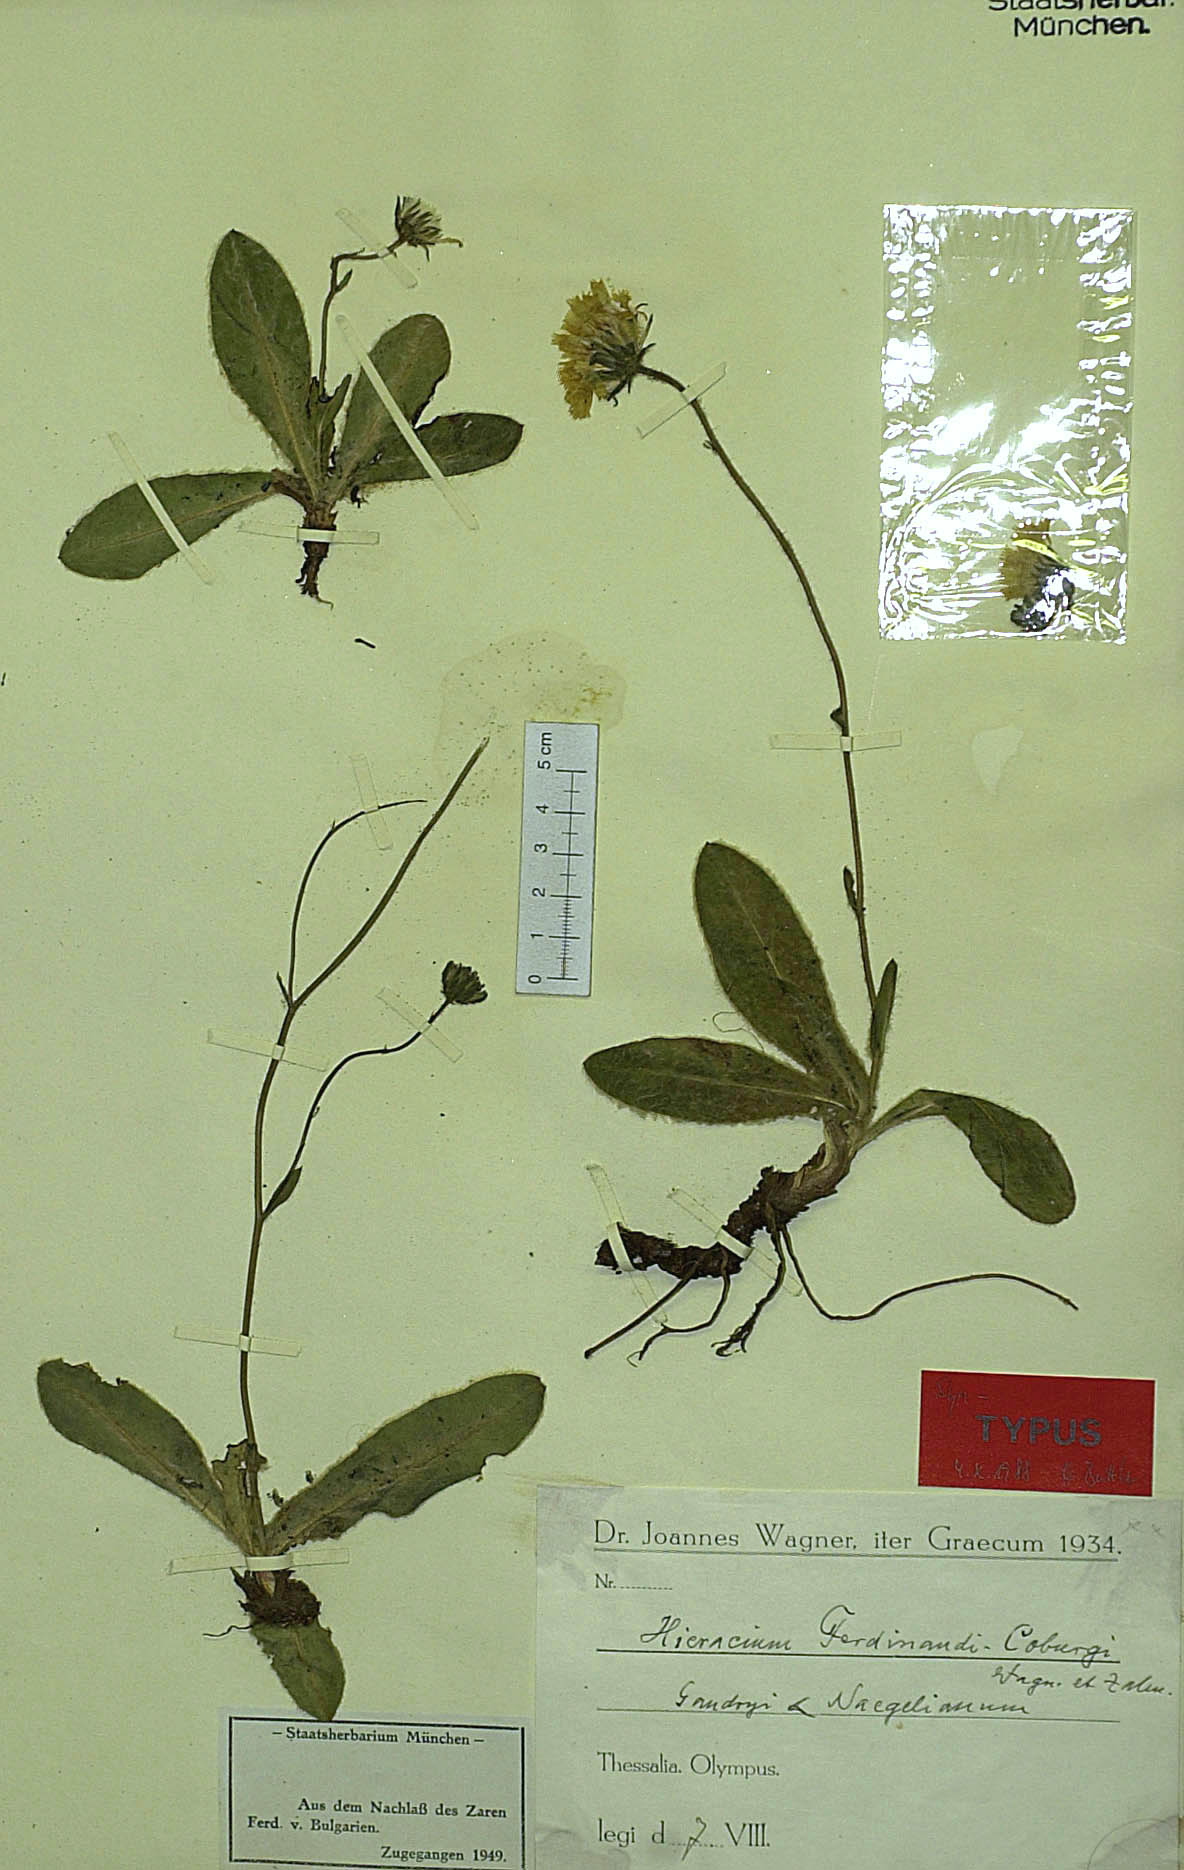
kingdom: Plantae
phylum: Tracheophyta
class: Magnoliopsida
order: Asterales
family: Asteraceae
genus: Hieracium
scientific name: Hieracium waldsteinii
